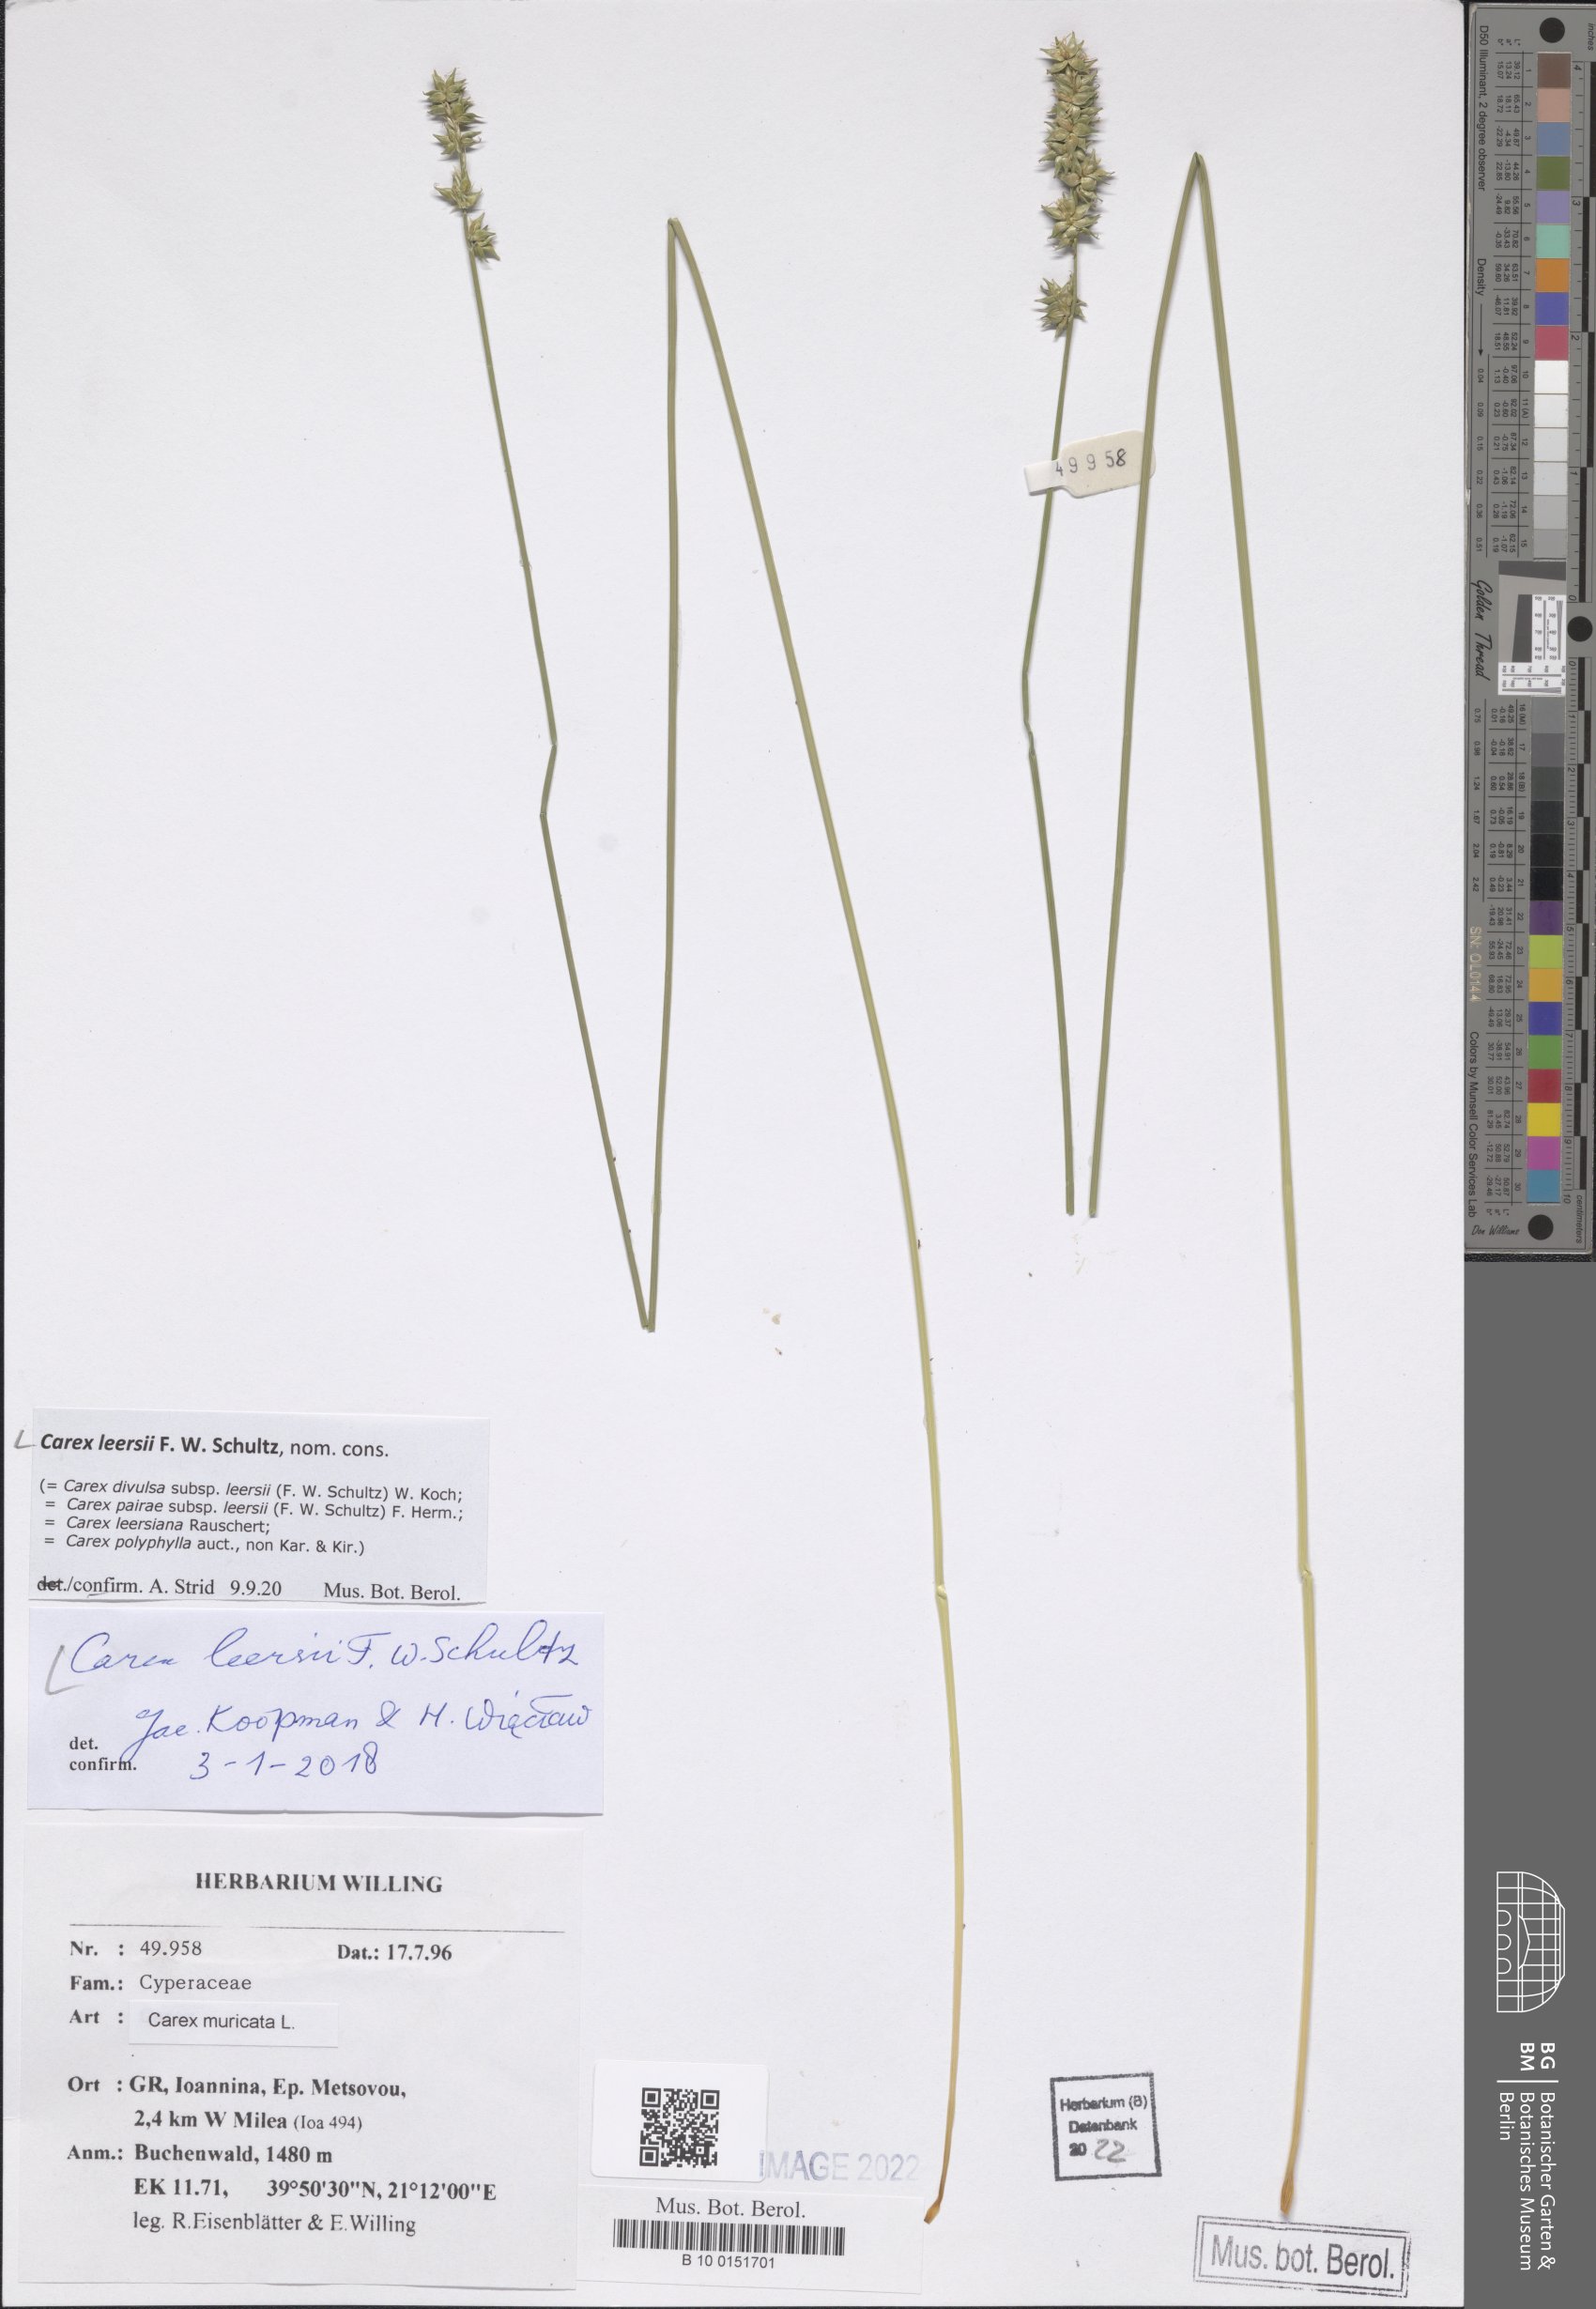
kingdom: Plantae
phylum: Tracheophyta
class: Liliopsida
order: Poales
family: Cyperaceae
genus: Carex
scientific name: Carex leersii
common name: Leers' sedge
